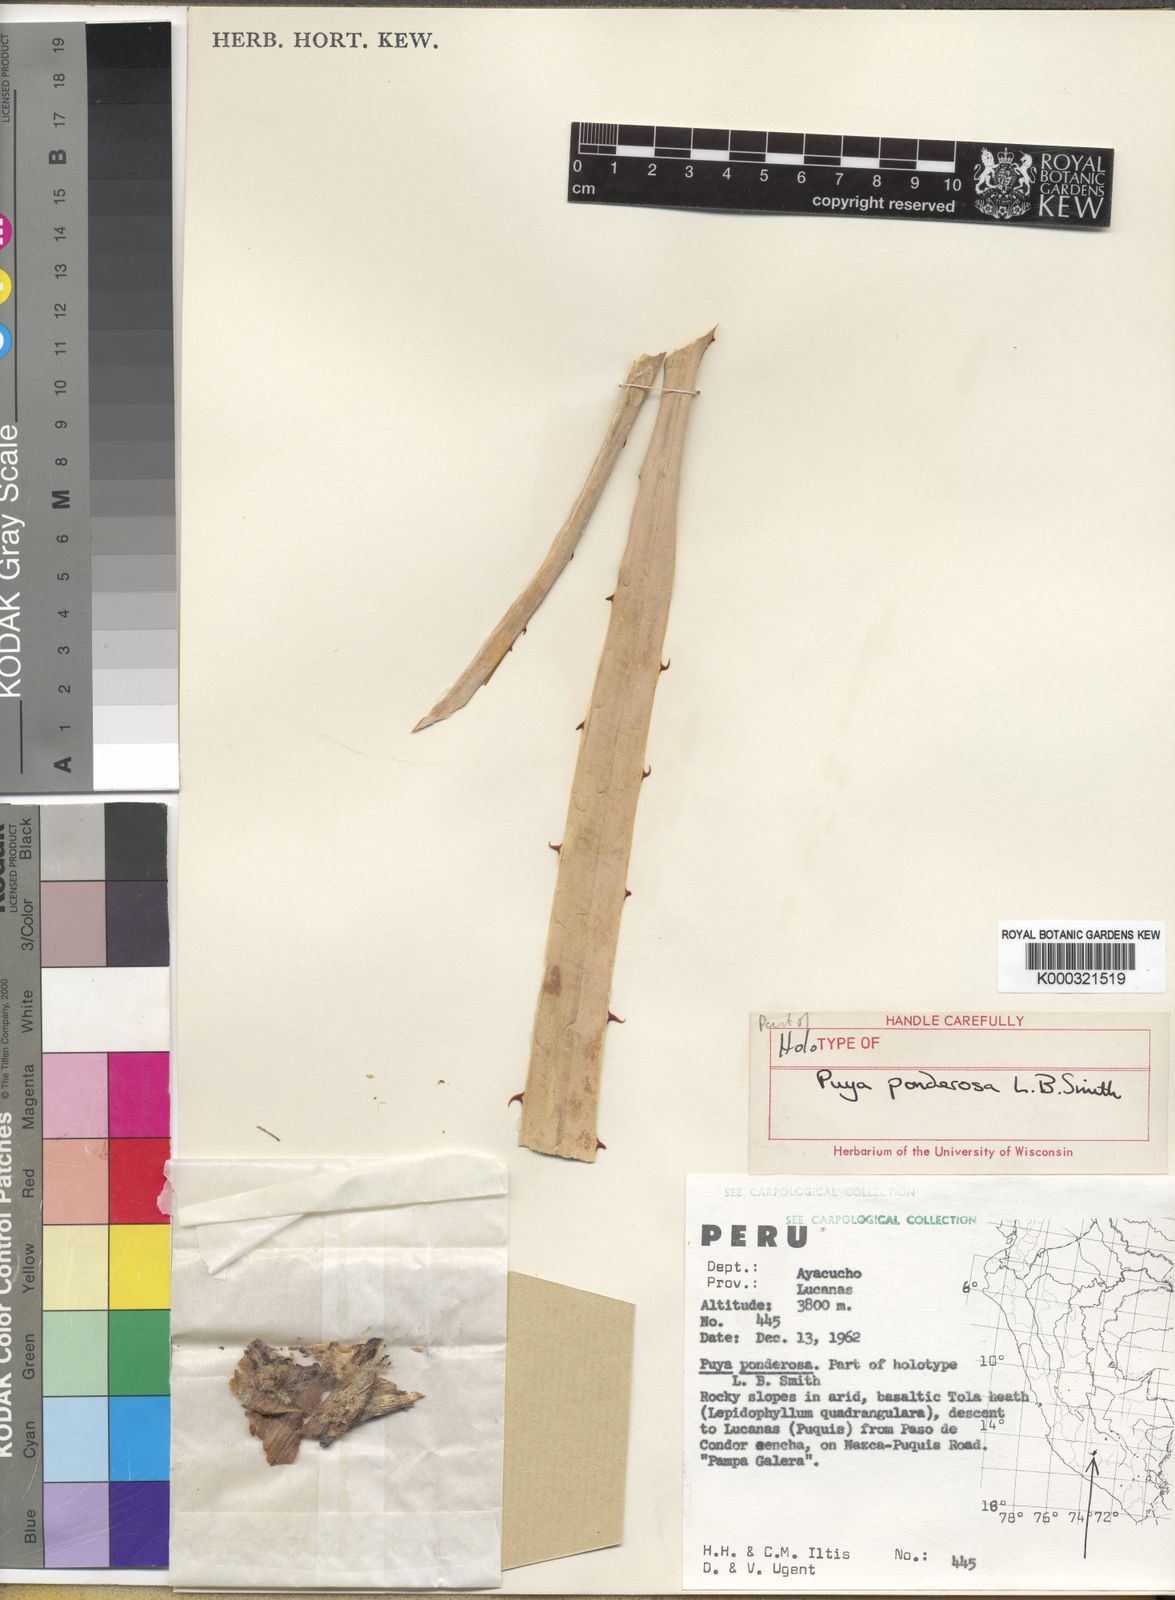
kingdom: Plantae
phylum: Tracheophyta
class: Liliopsida
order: Poales
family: Bromeliaceae
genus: Puya
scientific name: Puya ponderosa
